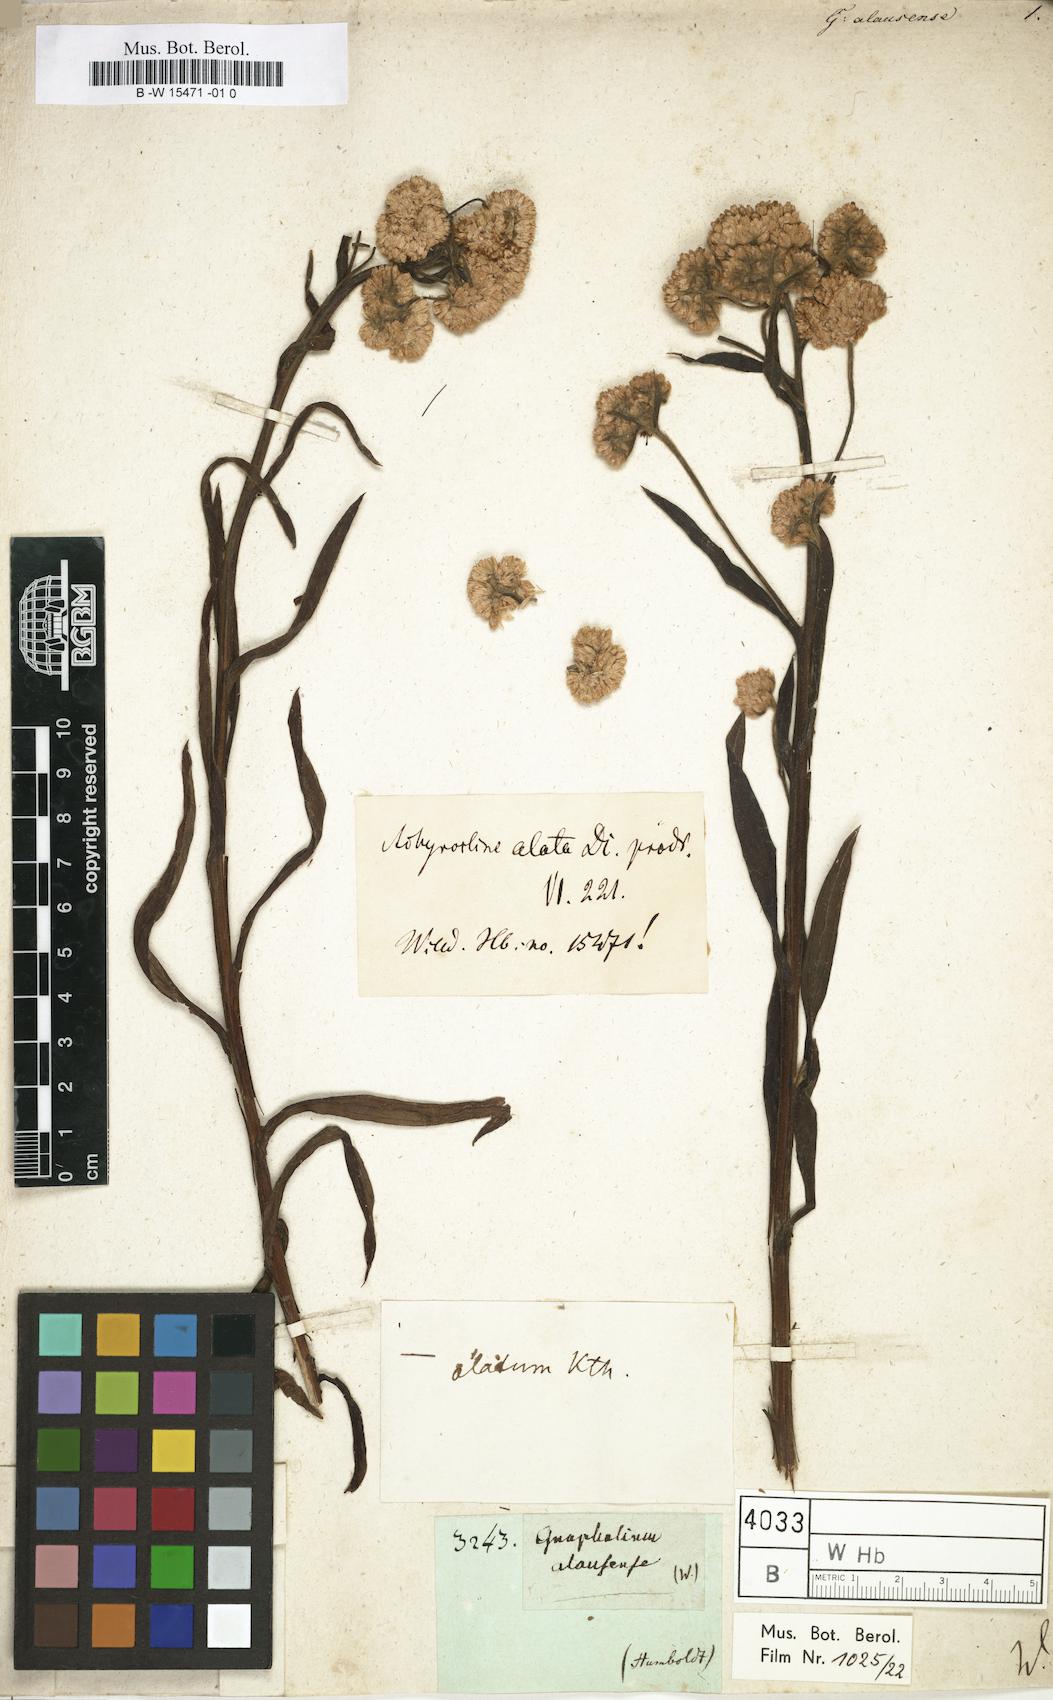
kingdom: Plantae
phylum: Tracheophyta
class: Magnoliopsida
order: Asterales
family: Asteraceae
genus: Achyrocline
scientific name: Achyrocline alata
